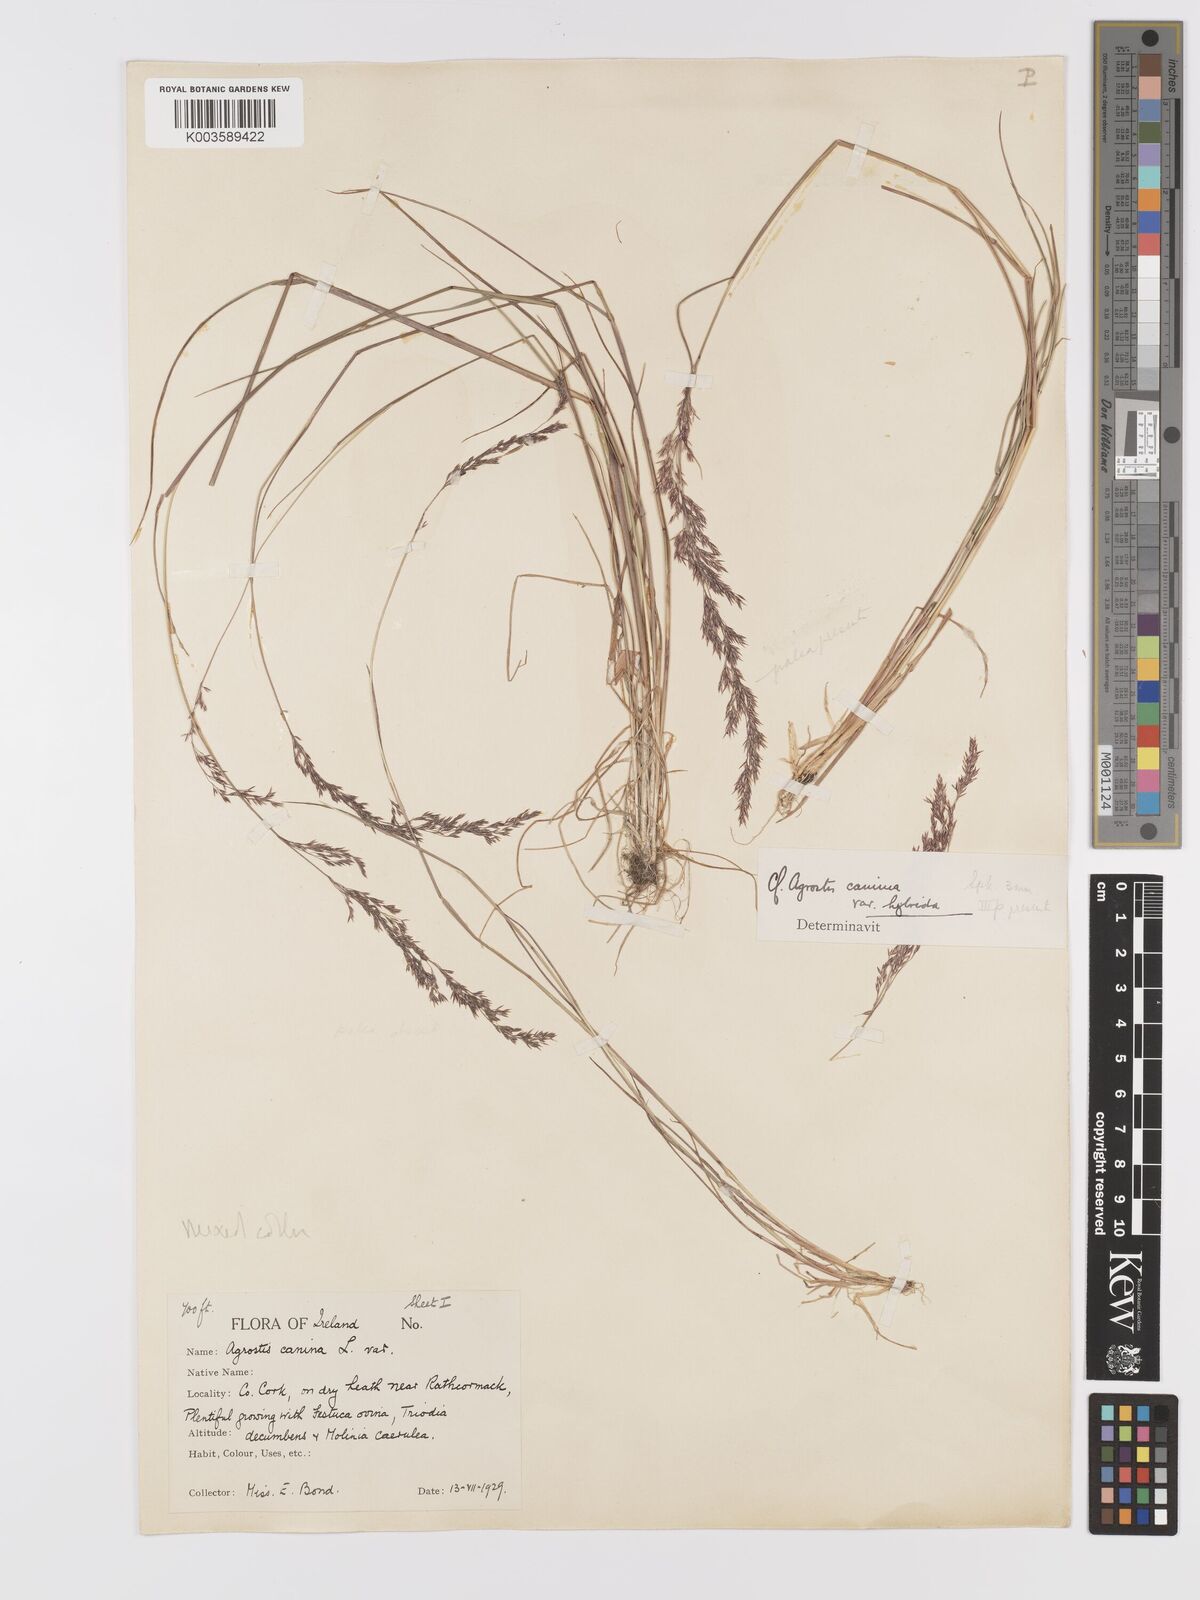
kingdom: Plantae
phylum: Tracheophyta
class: Liliopsida
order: Poales
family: Poaceae
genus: Agrostis
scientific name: Agrostis canina
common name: Velvet bent
